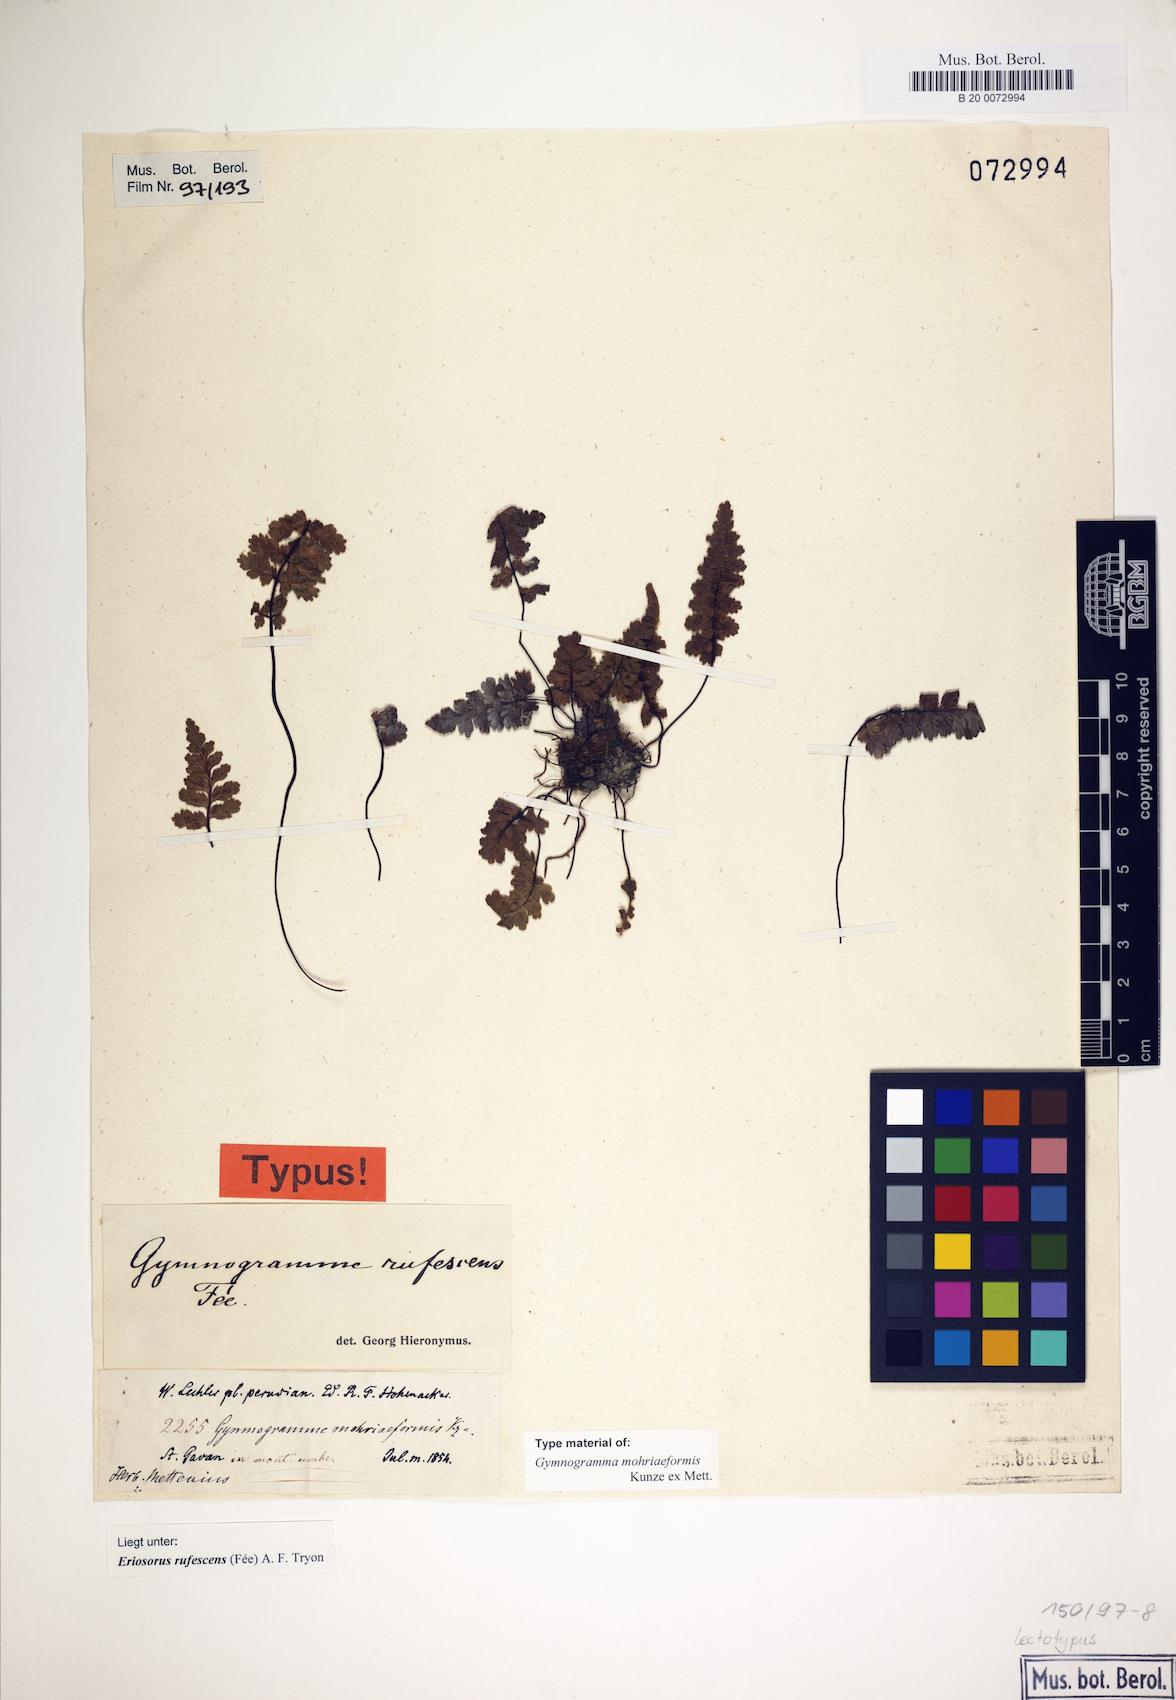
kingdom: Plantae
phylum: Tracheophyta
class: Polypodiopsida
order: Polypodiales
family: Pteridaceae
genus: Jamesonia
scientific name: Jamesonia rufescens
